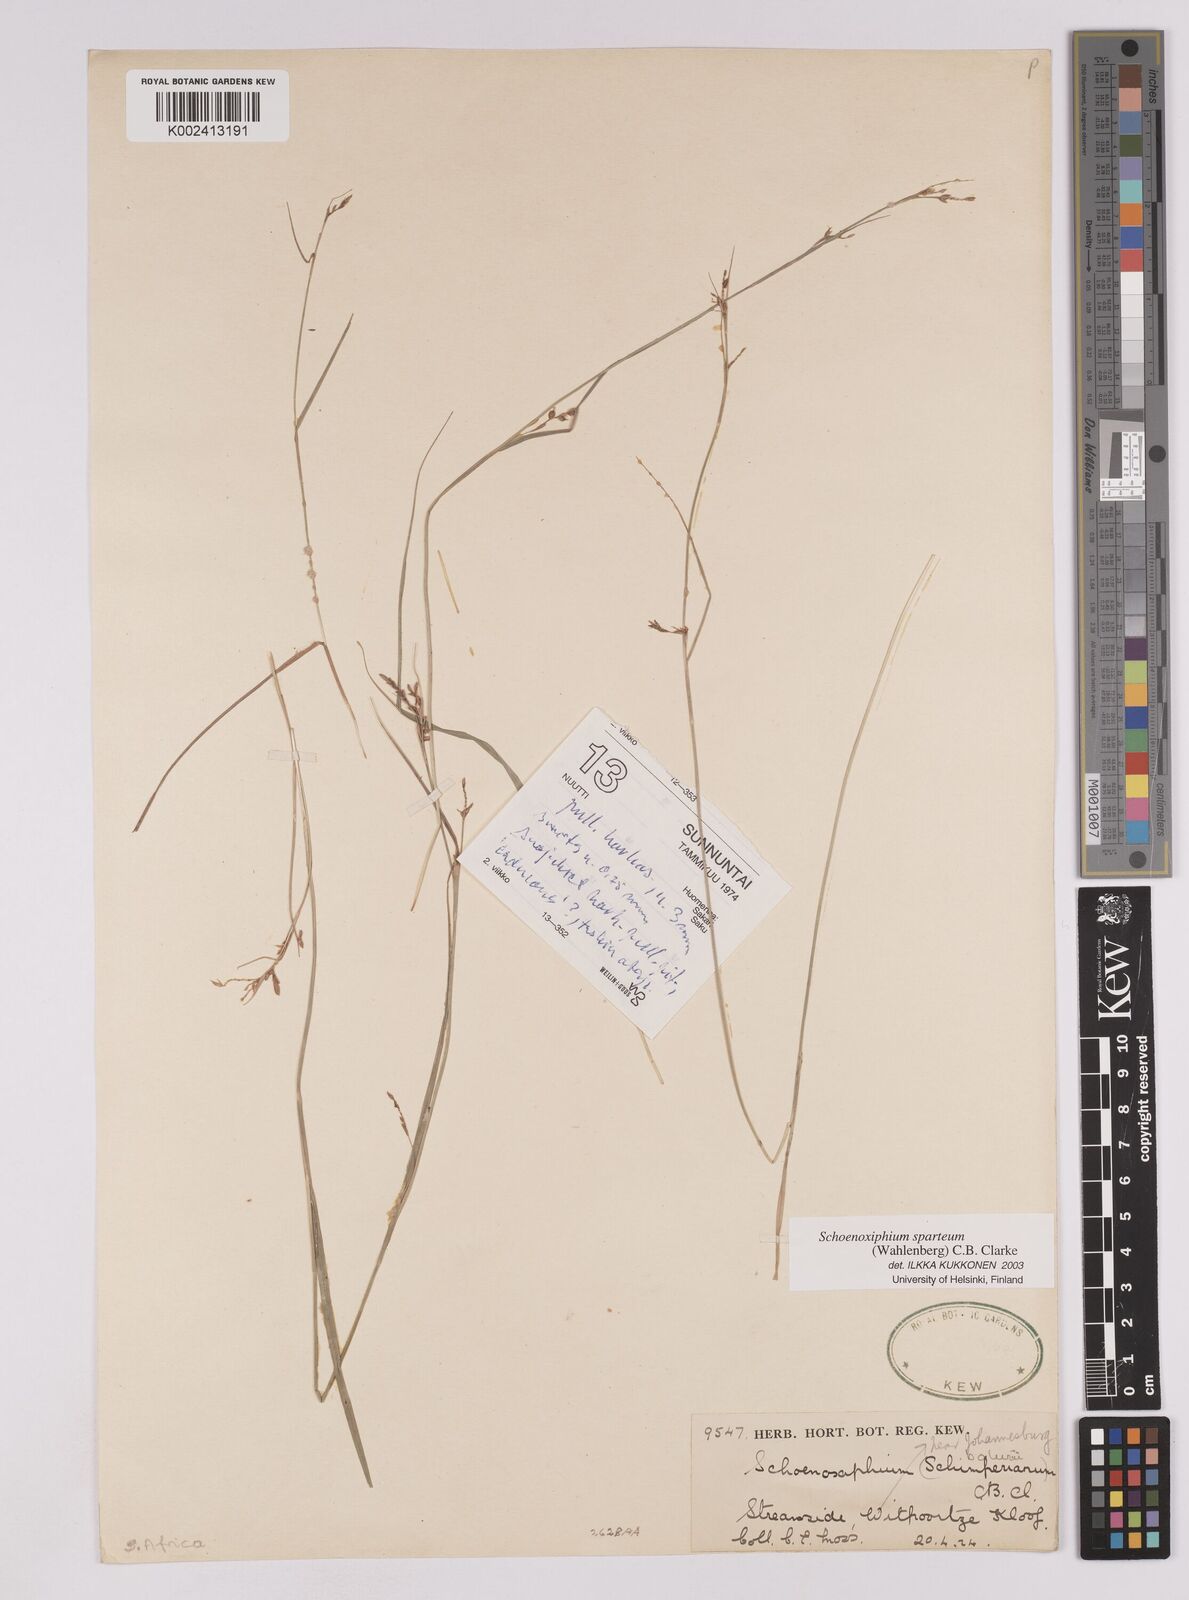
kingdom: Plantae
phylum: Tracheophyta
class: Liliopsida
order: Poales
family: Cyperaceae
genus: Carex
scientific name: Carex spartea
